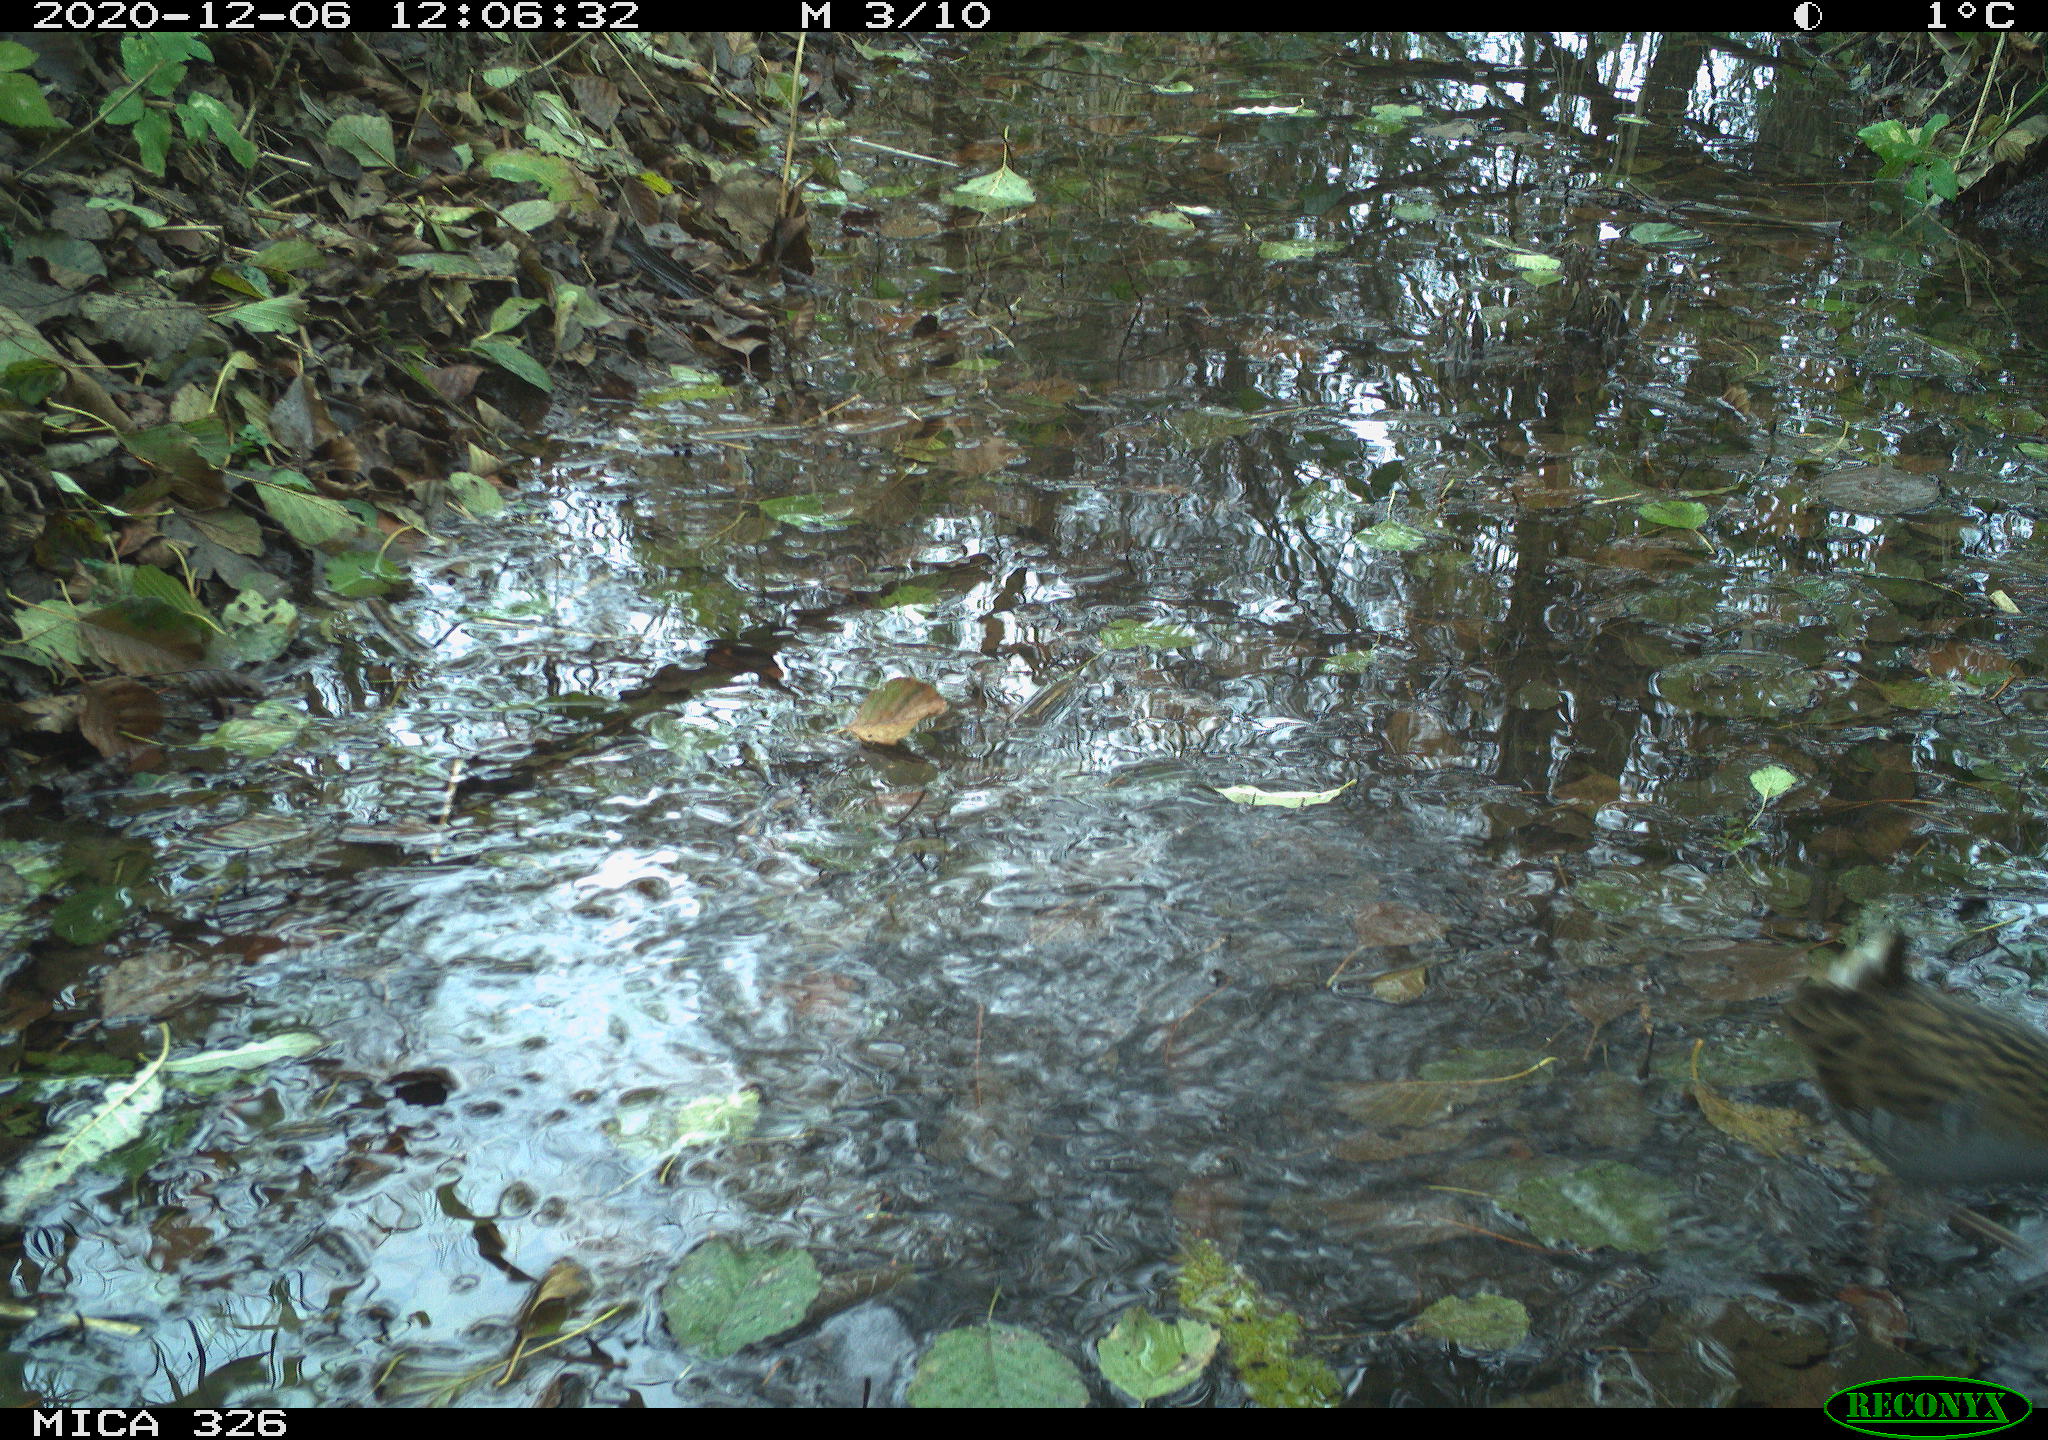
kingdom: Animalia
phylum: Chordata
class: Aves
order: Gruiformes
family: Rallidae
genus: Rallus
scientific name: Rallus aquaticus
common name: Water rail
